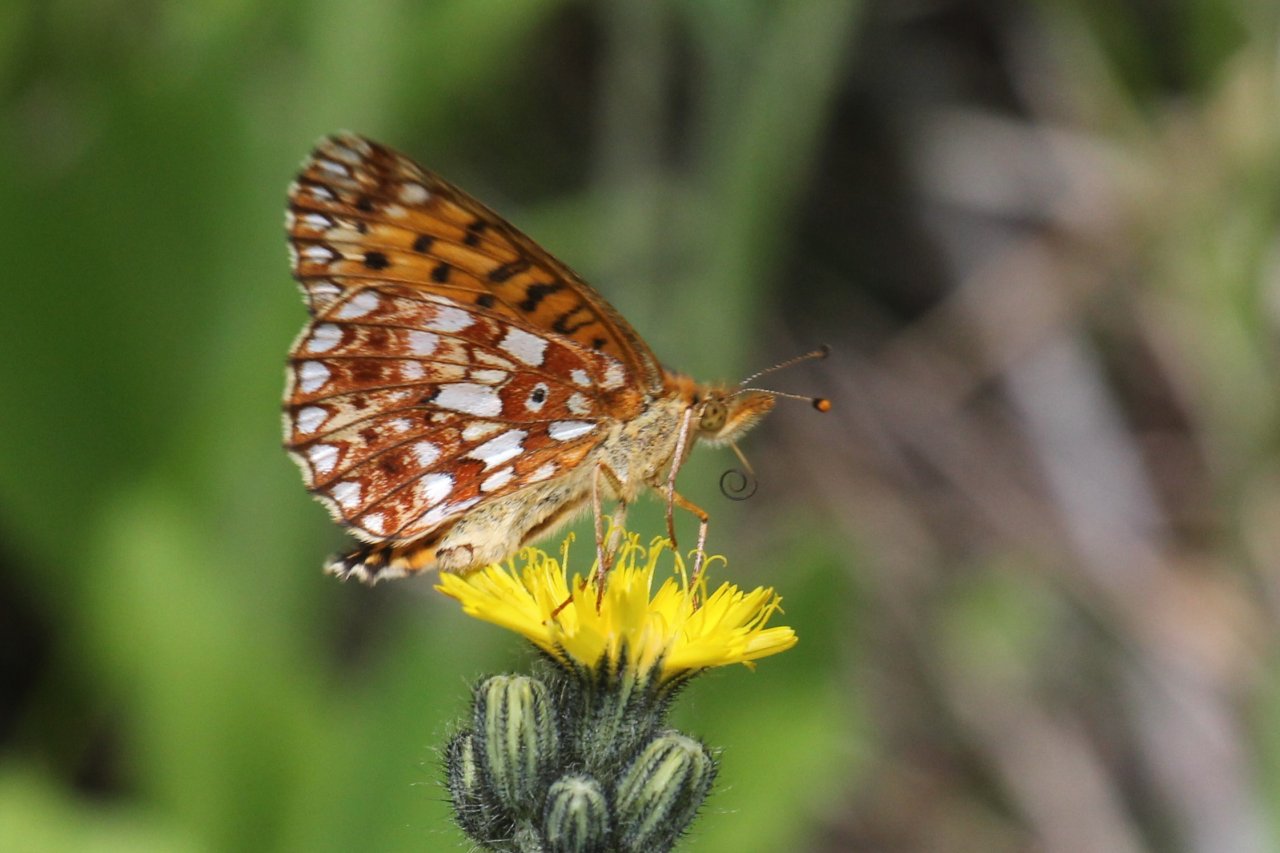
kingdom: Animalia
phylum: Arthropoda
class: Insecta
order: Lepidoptera
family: Nymphalidae
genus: Boloria
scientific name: Boloria selene
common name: Silver-bordered Fritillary
